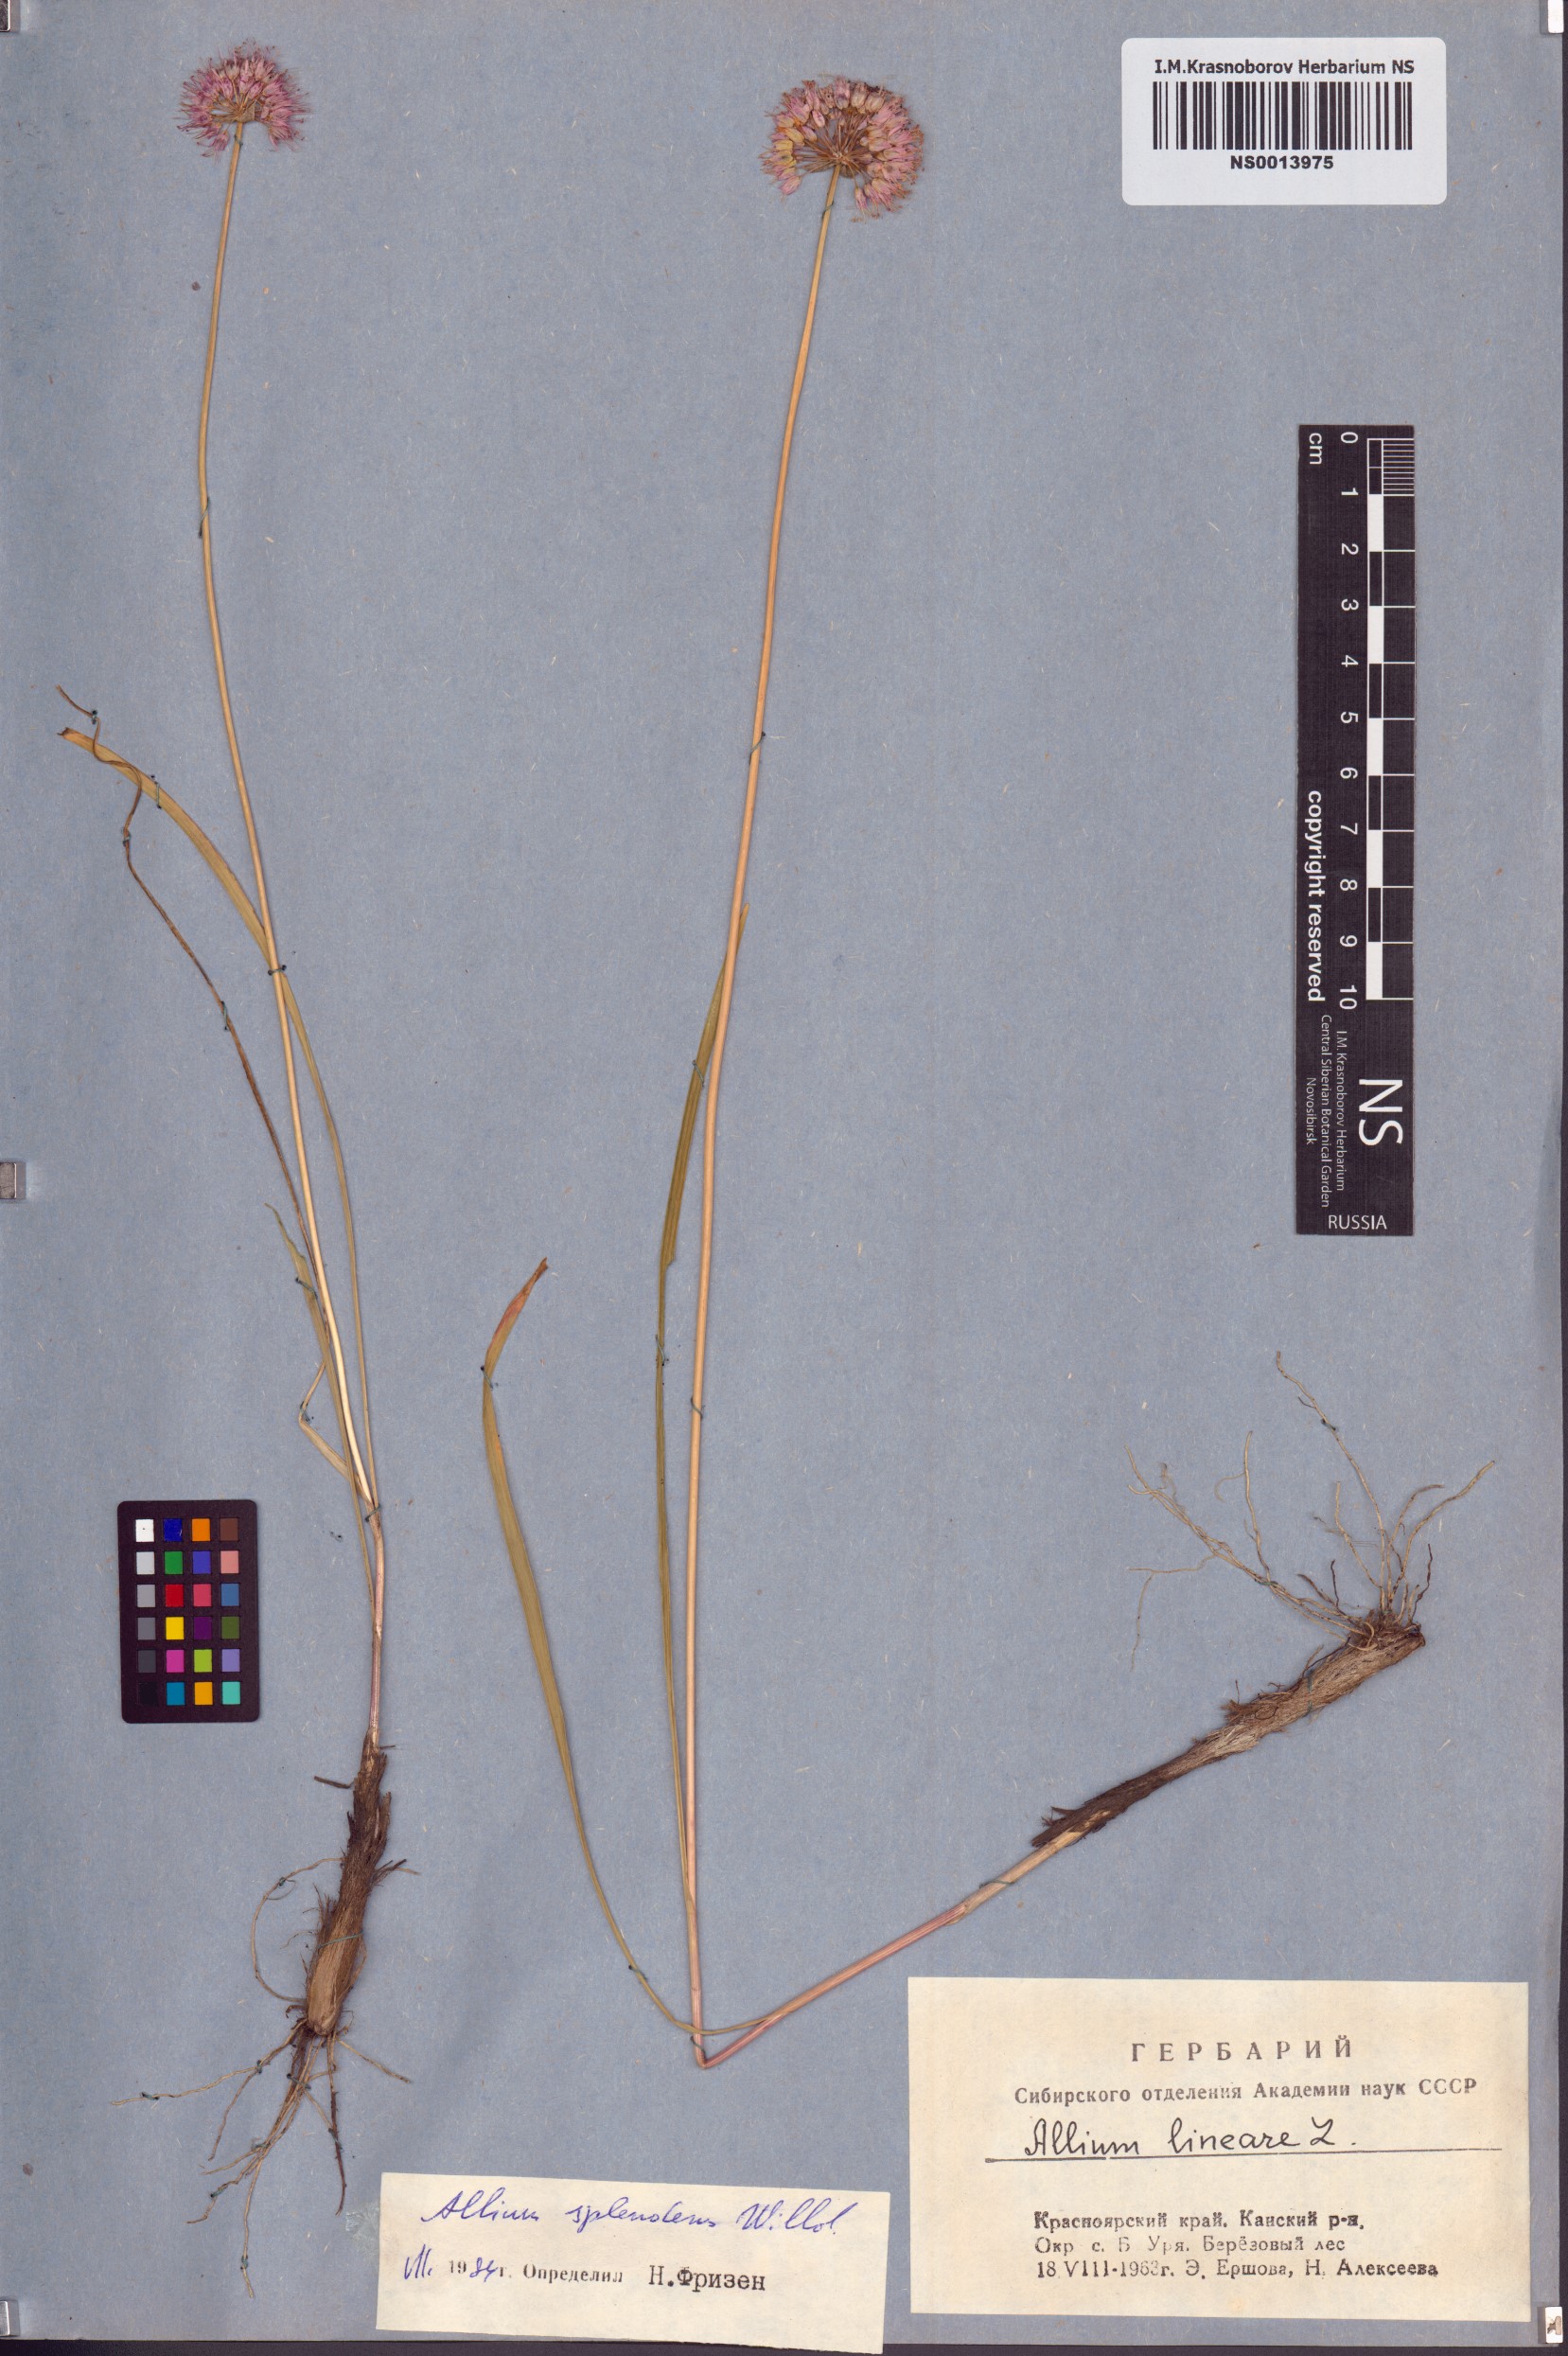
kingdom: Plantae
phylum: Tracheophyta
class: Liliopsida
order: Asparagales
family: Amaryllidaceae
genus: Allium
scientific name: Allium splendens
